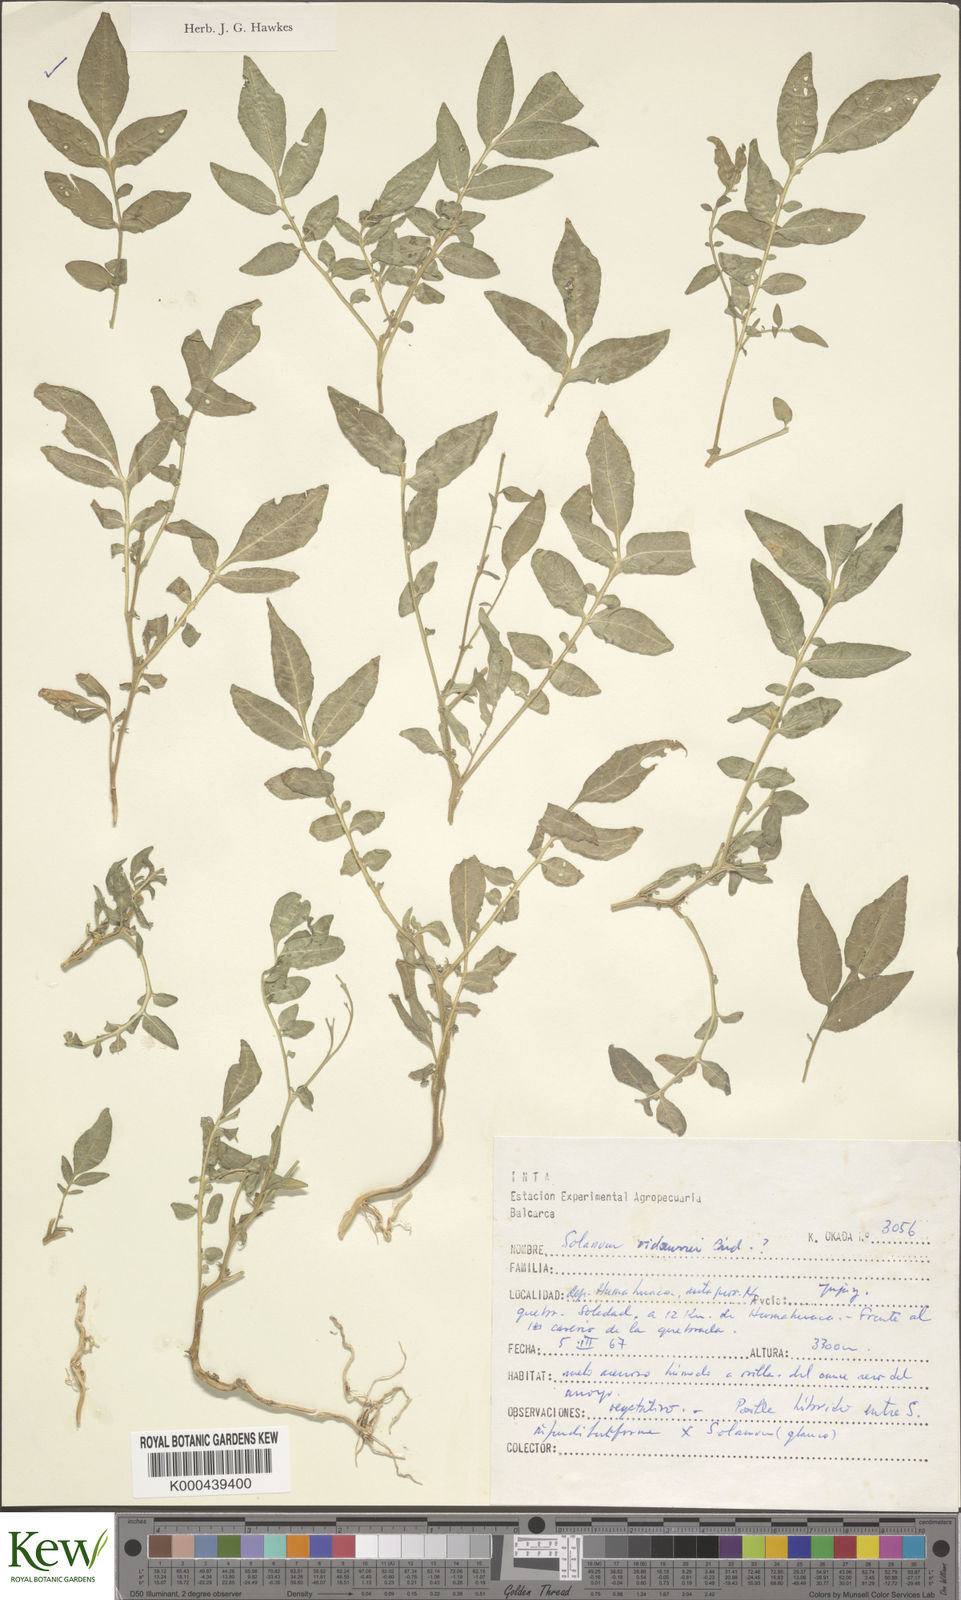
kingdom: Plantae
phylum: Tracheophyta
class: Magnoliopsida
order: Solanales
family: Solanaceae
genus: Solanum
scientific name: Solanum brevicaule
